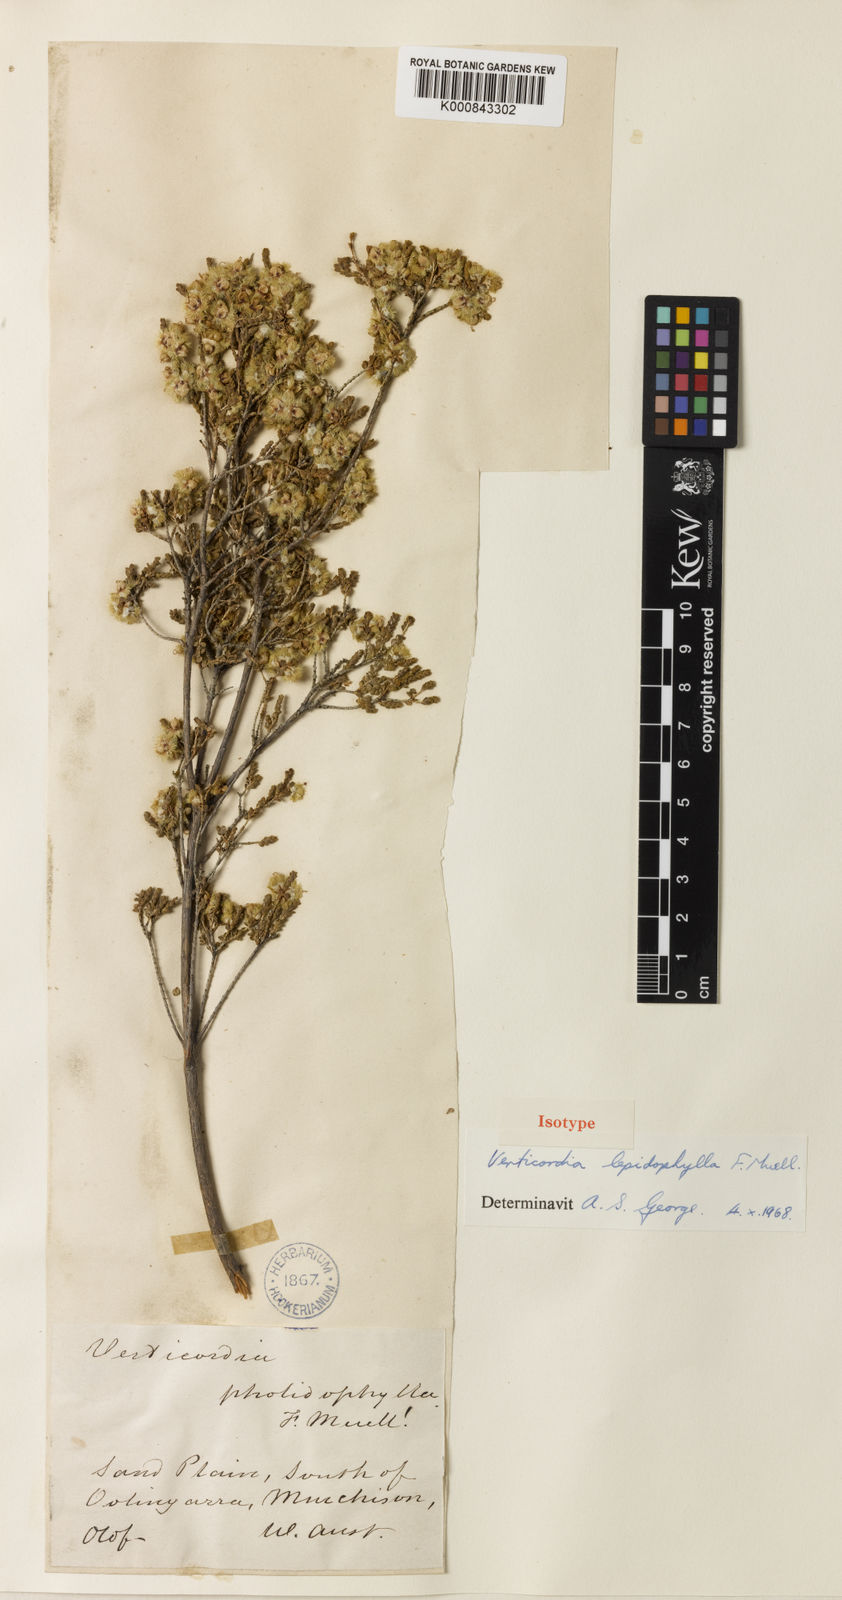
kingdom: Plantae
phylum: Tracheophyta
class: Magnoliopsida
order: Myrtales
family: Myrtaceae
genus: Verticordia
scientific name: Verticordia lepidophylla
